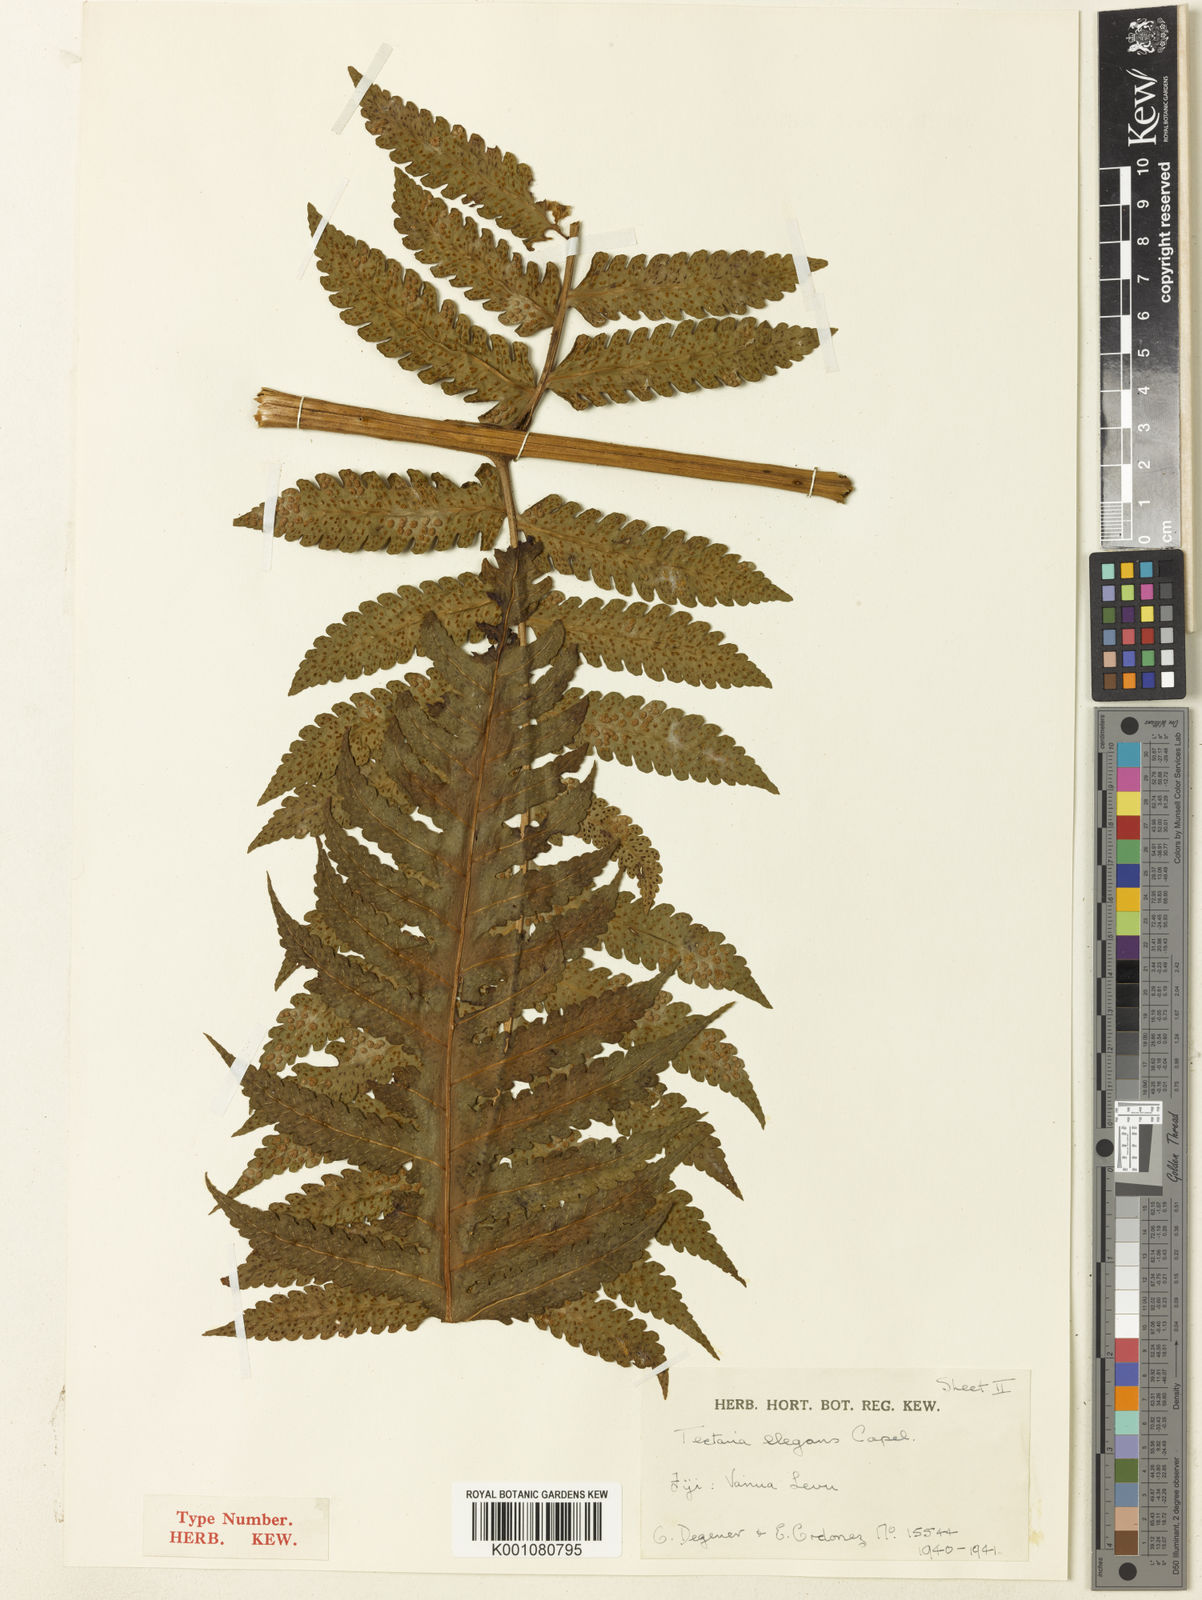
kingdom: Plantae
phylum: Tracheophyta
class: Polypodiopsida
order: Polypodiales
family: Dryopteridaceae
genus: Pleocnemia
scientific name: Pleocnemia elegans
